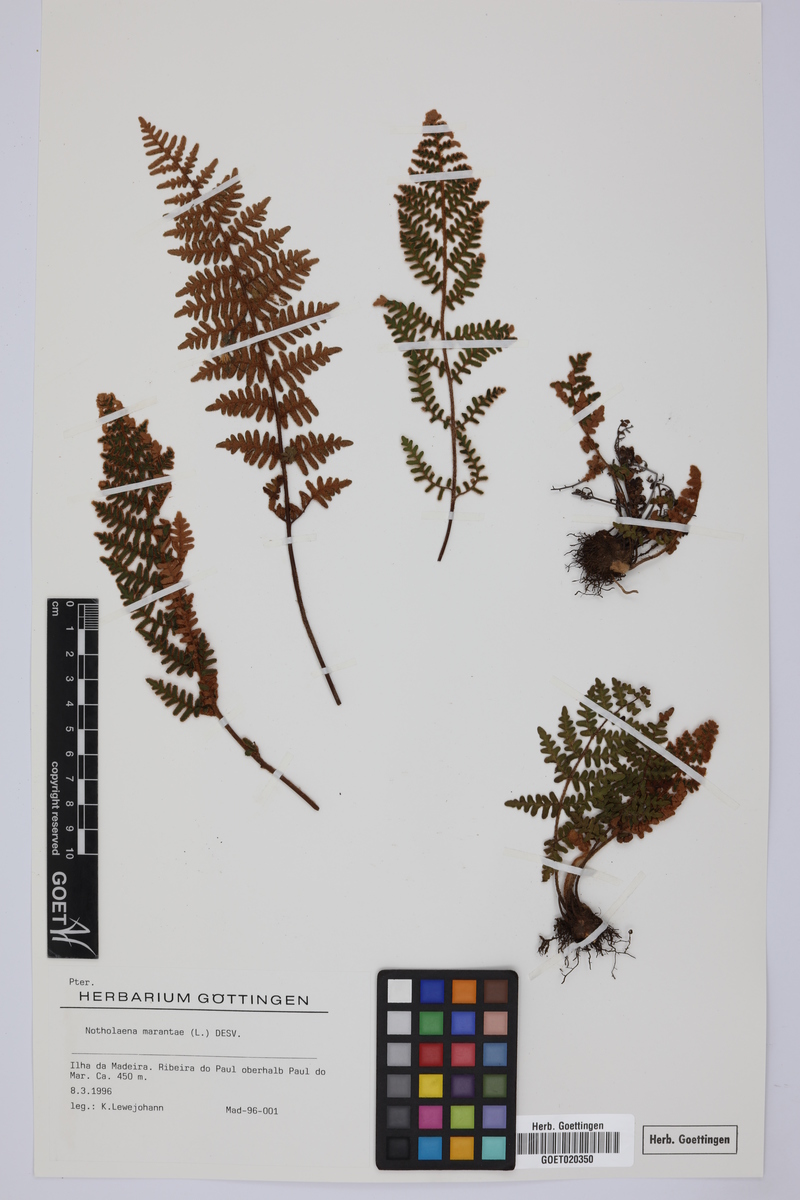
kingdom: Plantae
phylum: Tracheophyta
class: Polypodiopsida
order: Polypodiales
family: Pteridaceae
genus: Paragymnopteris
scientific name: Paragymnopteris marantae
